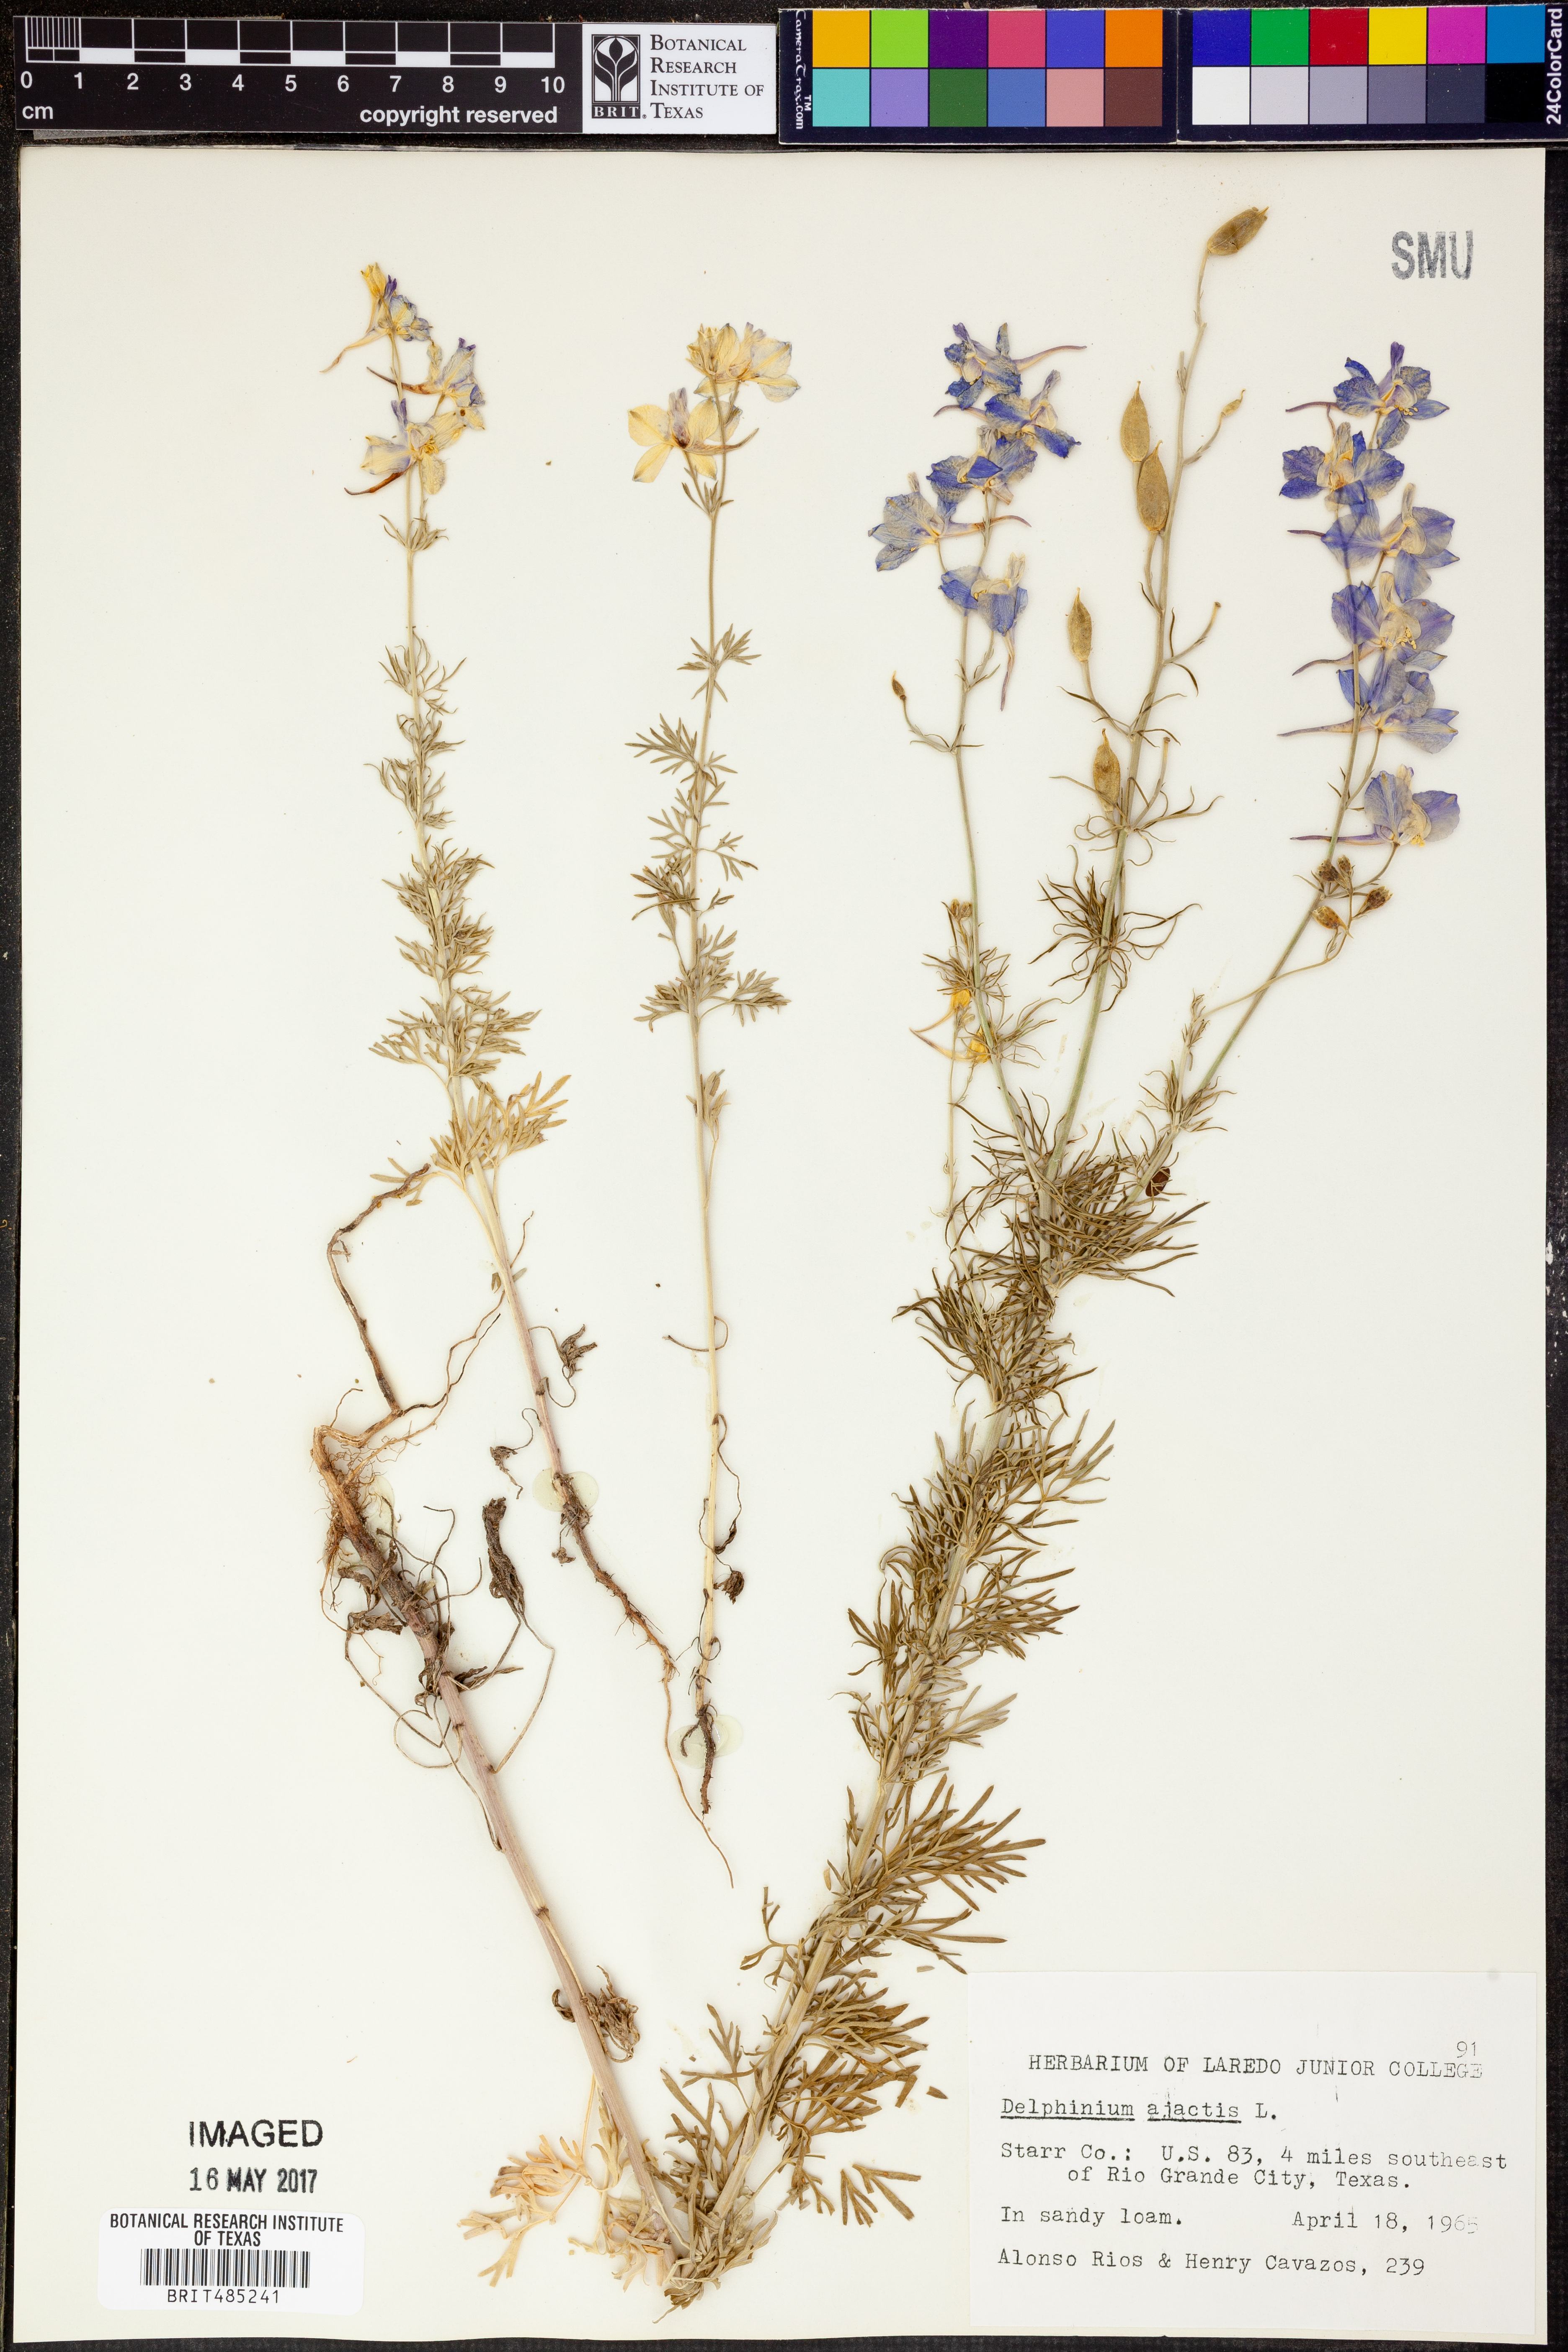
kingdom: Plantae
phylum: Tracheophyta
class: Magnoliopsida
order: Ranunculales
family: Ranunculaceae
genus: Delphinium
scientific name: Delphinium ajacis
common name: Doubtful knight's-spur
